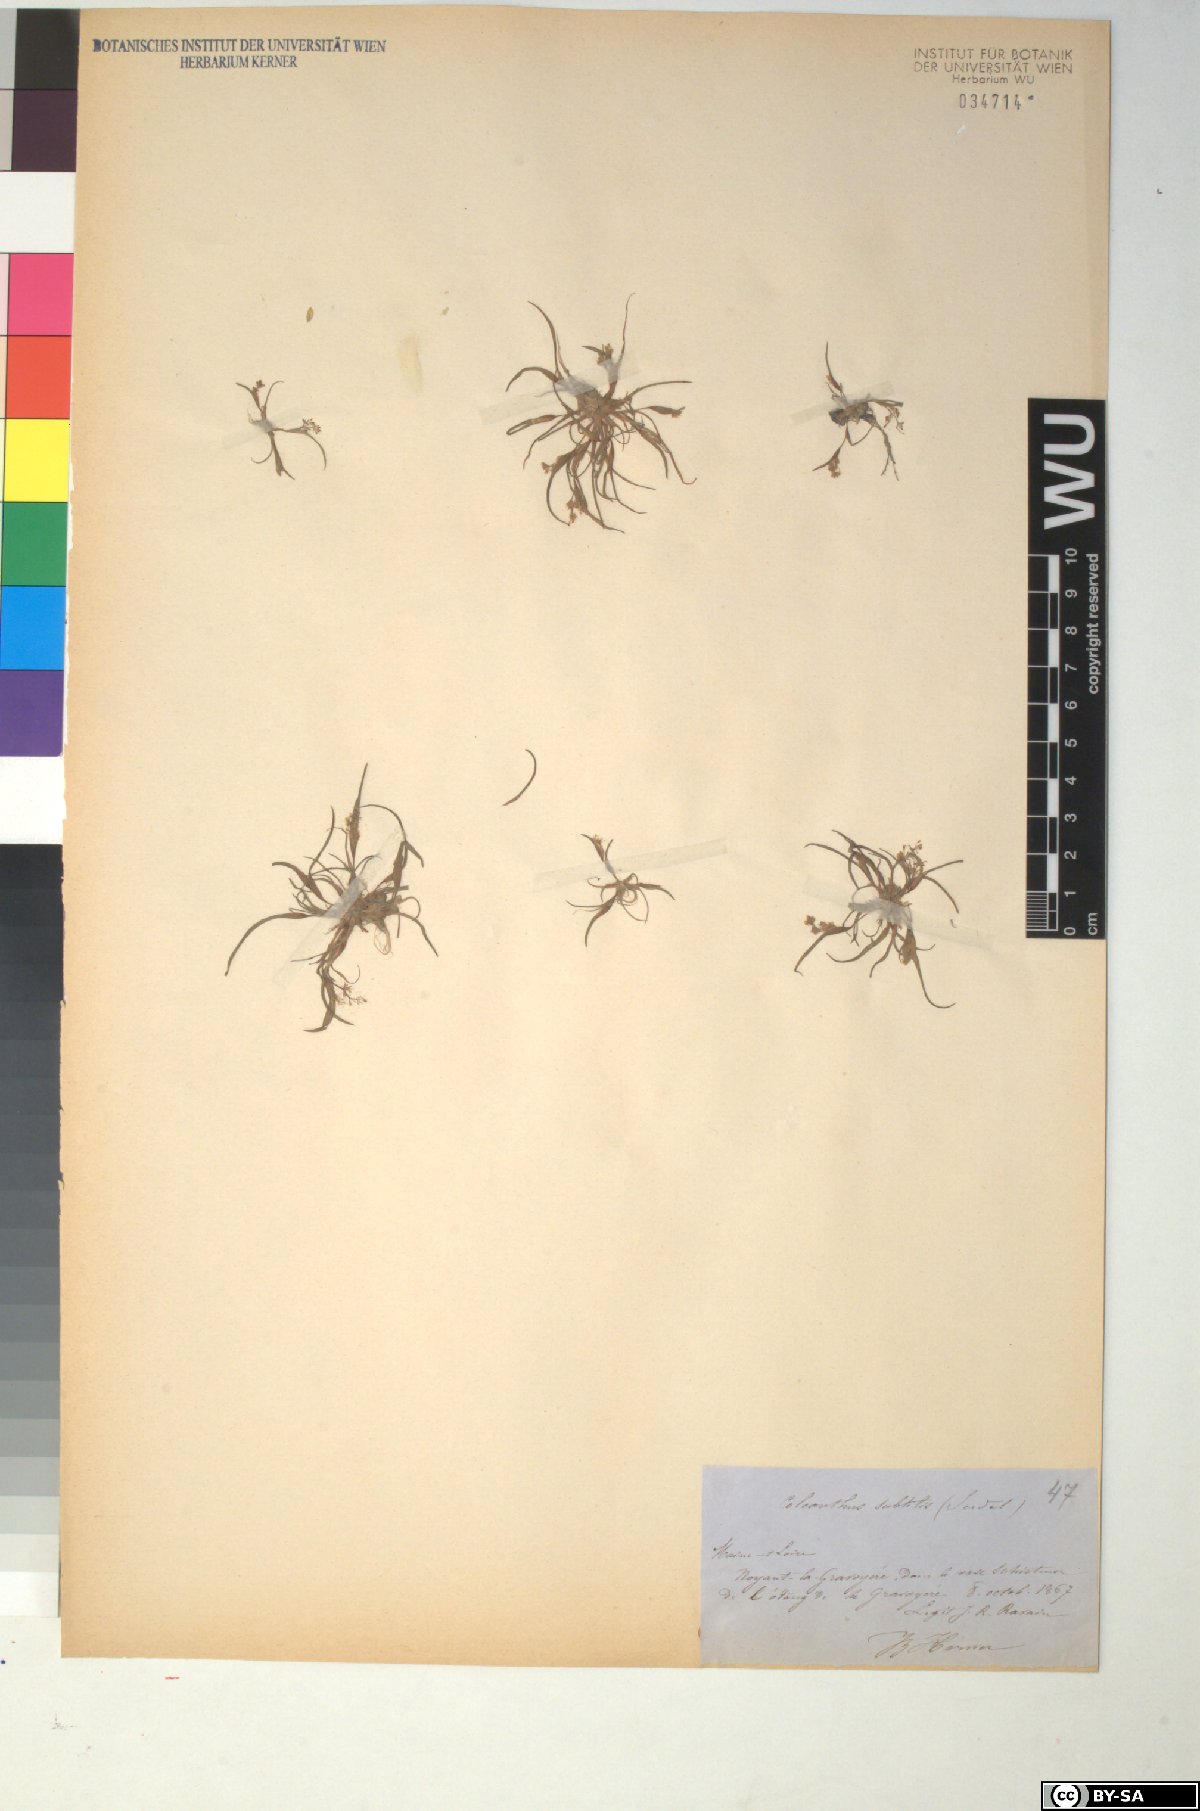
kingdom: Plantae
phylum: Tracheophyta
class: Liliopsida
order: Poales
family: Poaceae
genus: Coleanthus
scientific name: Coleanthus subtilis
